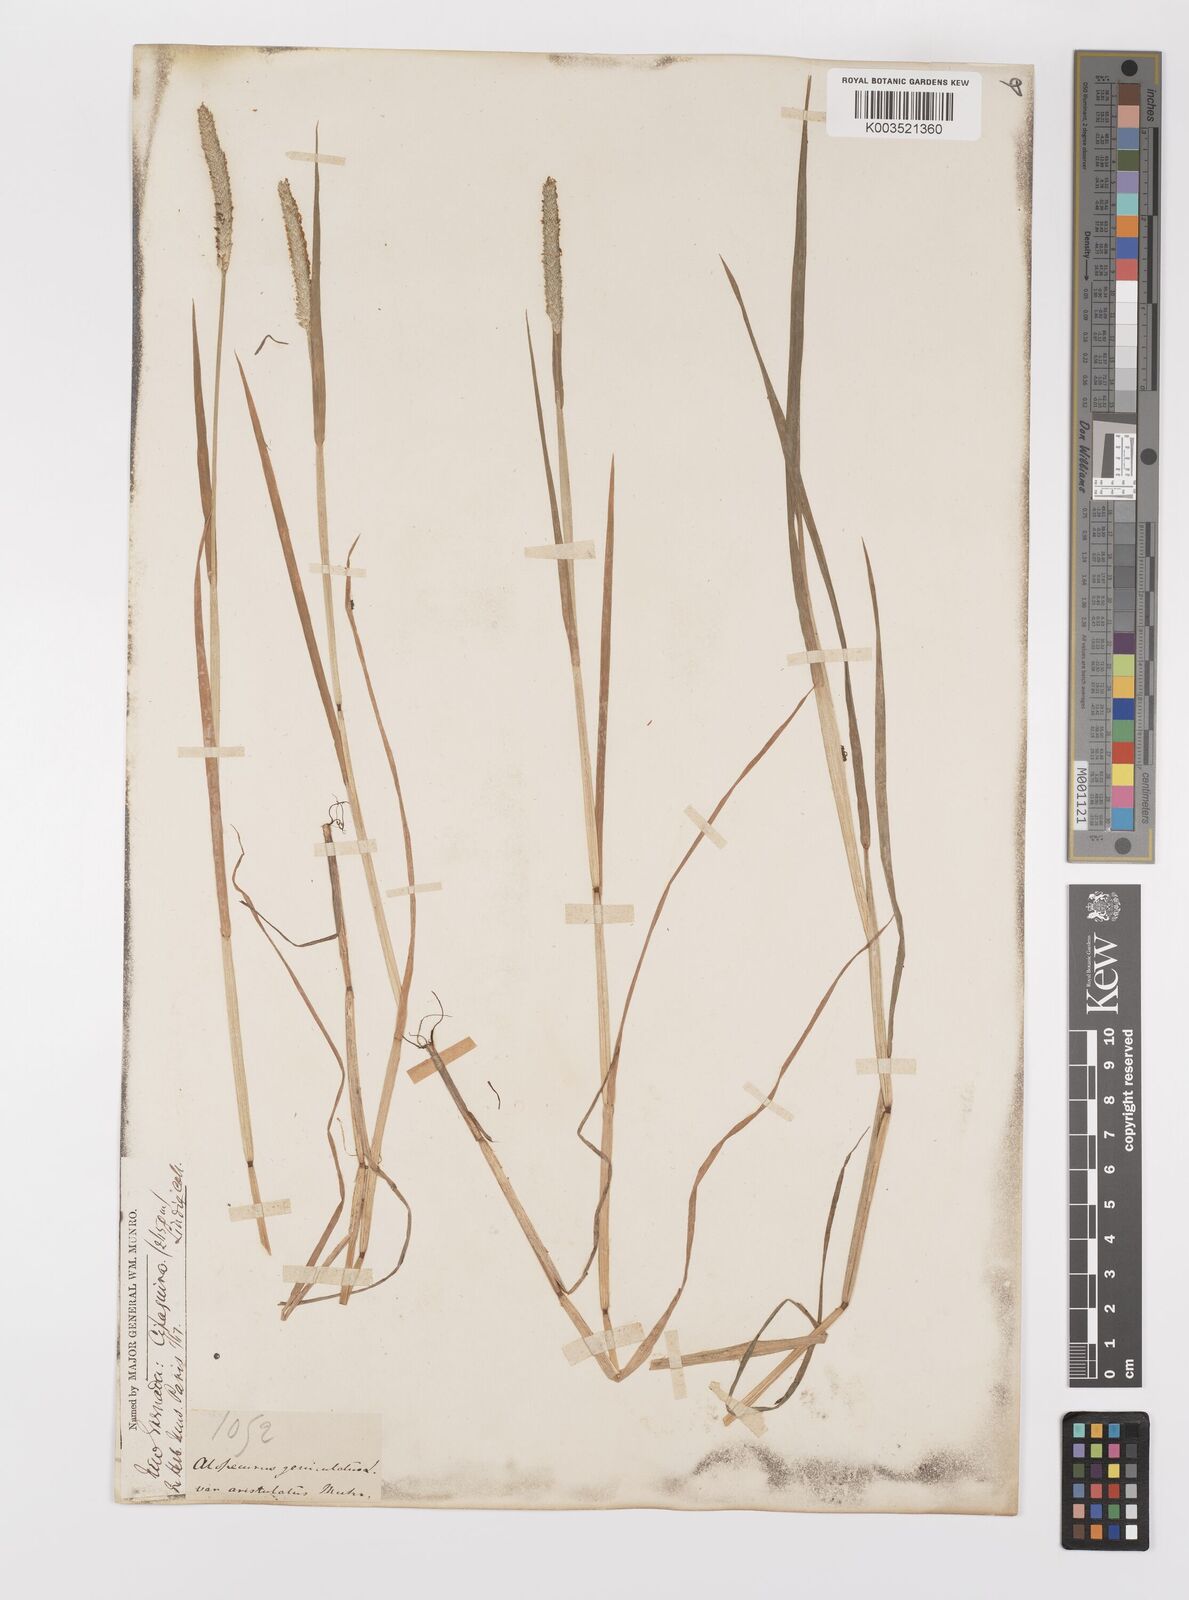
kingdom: Plantae
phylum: Tracheophyta
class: Liliopsida
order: Poales
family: Poaceae
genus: Alopecurus
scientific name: Alopecurus aequalis
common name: Orange foxtail
